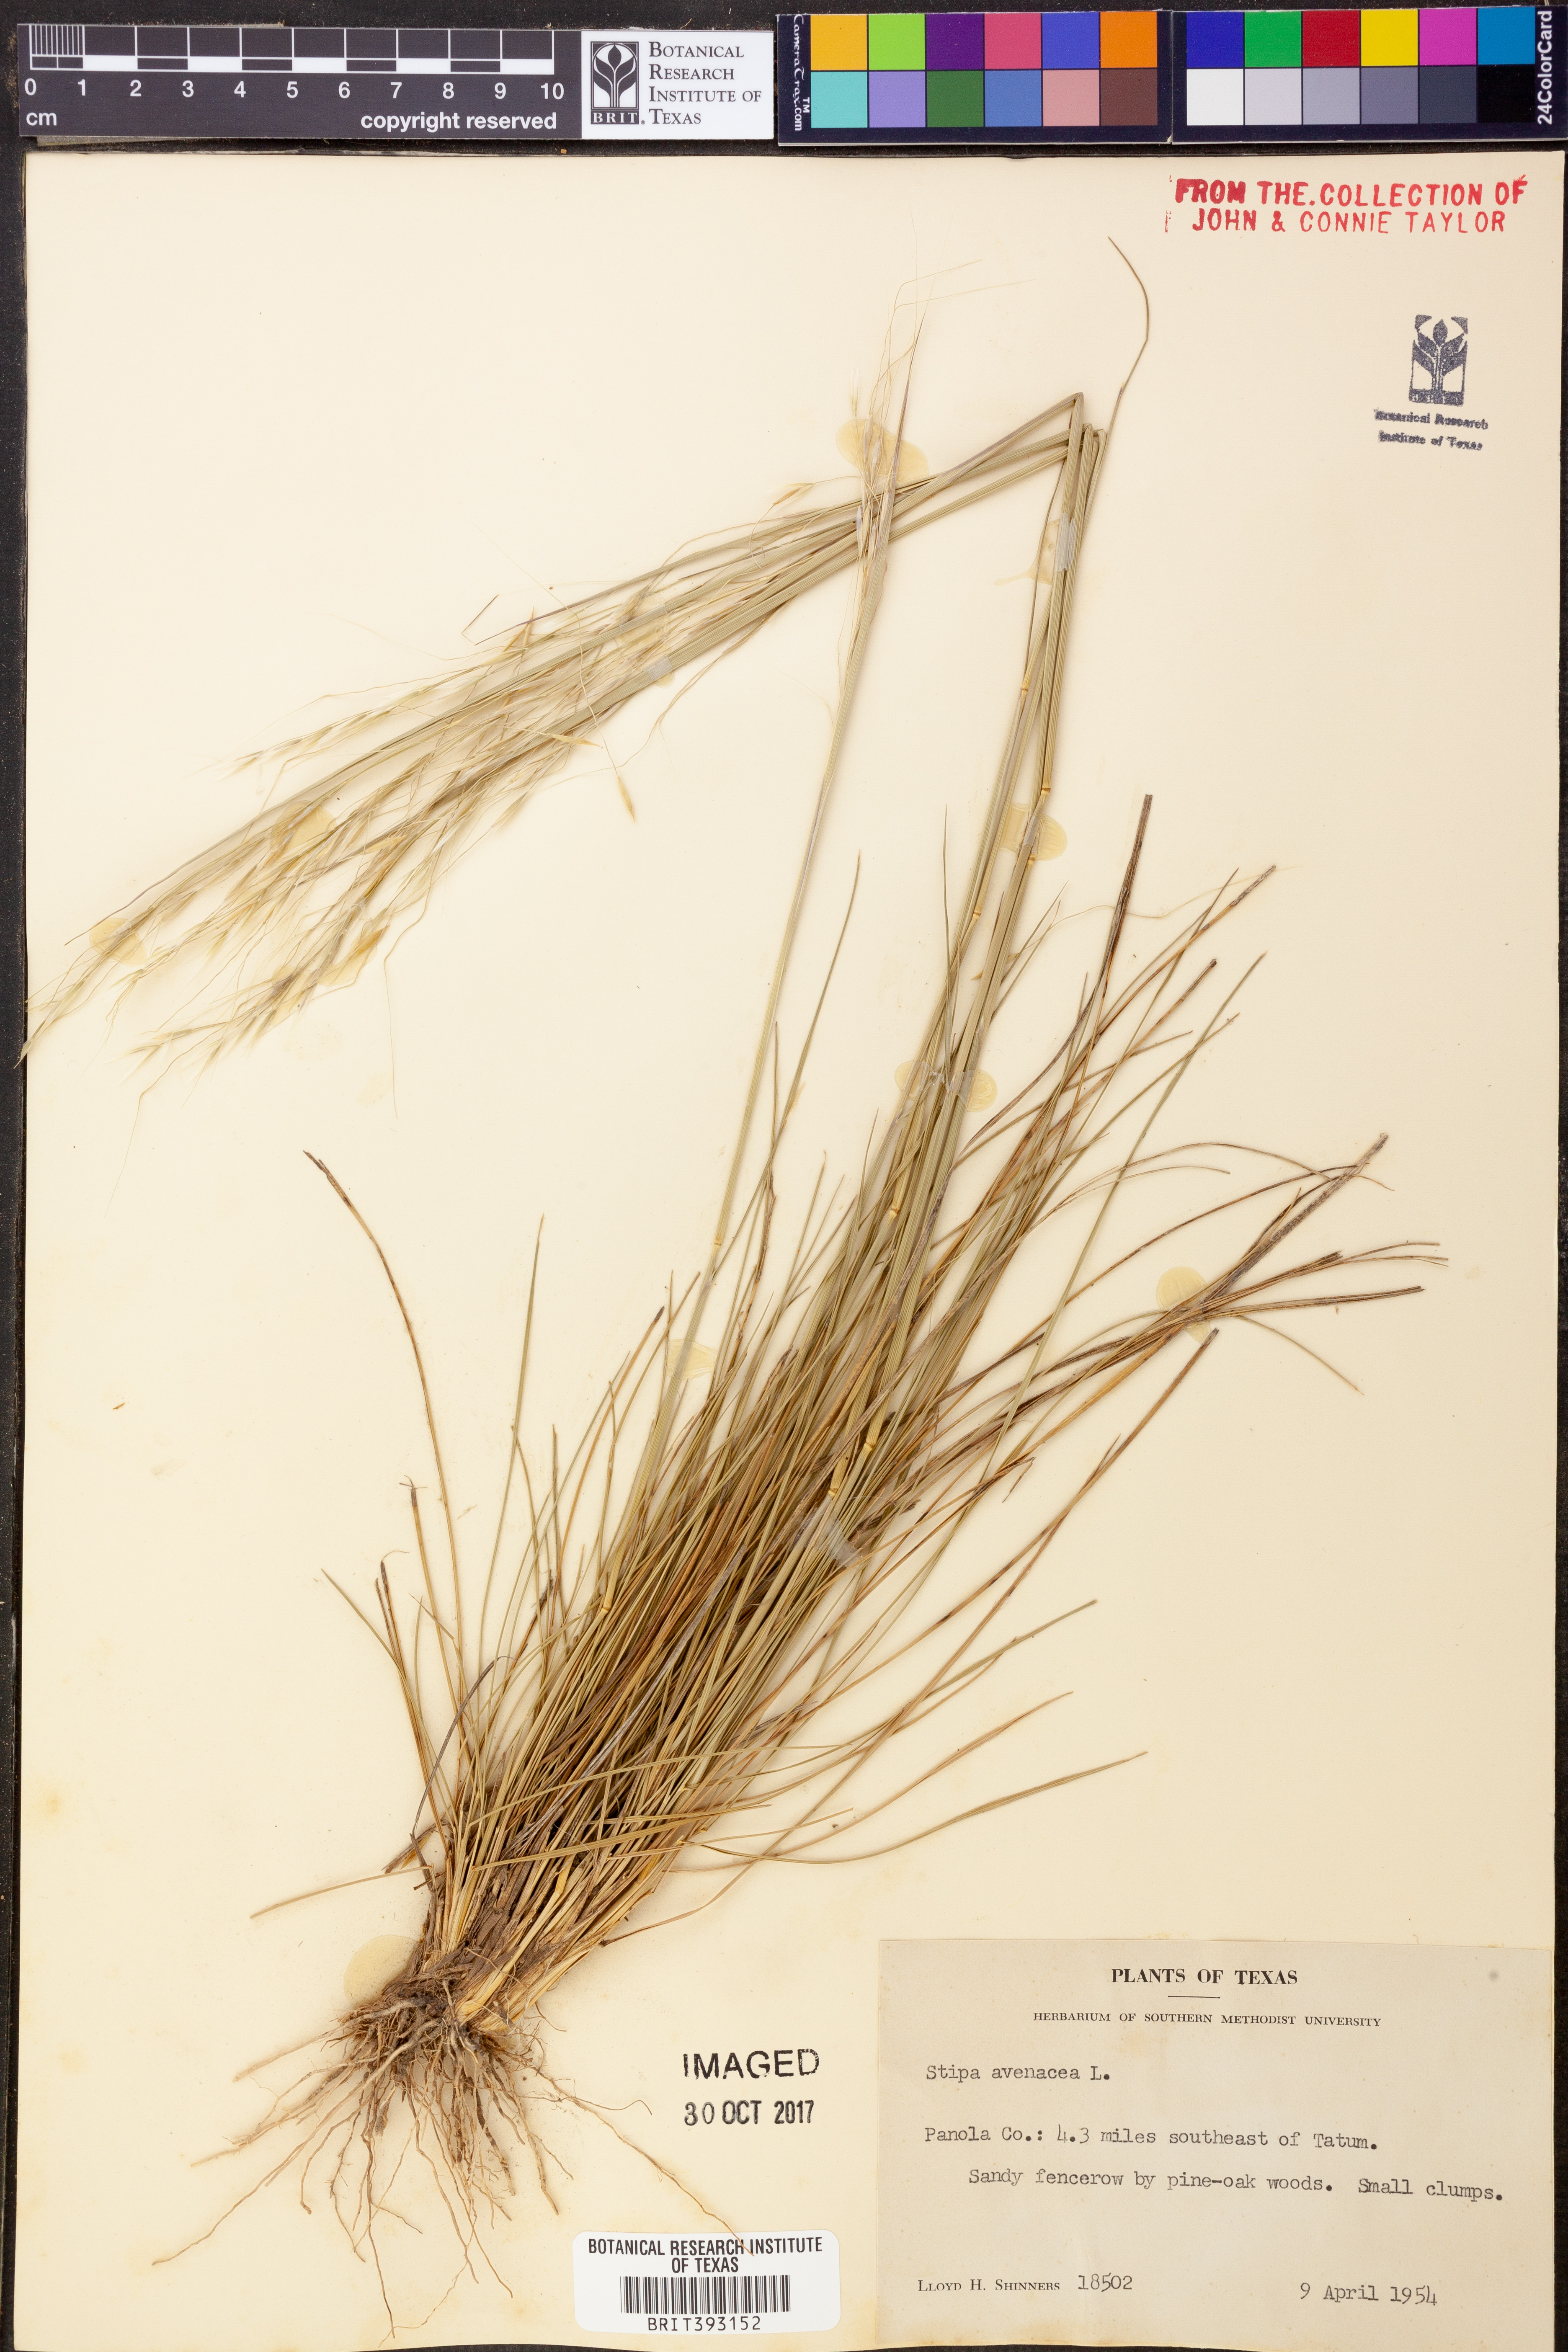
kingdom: Plantae
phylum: Tracheophyta
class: Liliopsida
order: Poales
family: Poaceae
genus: Piptochaetium
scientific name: Piptochaetium avenaceum
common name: Black bunchgrass
